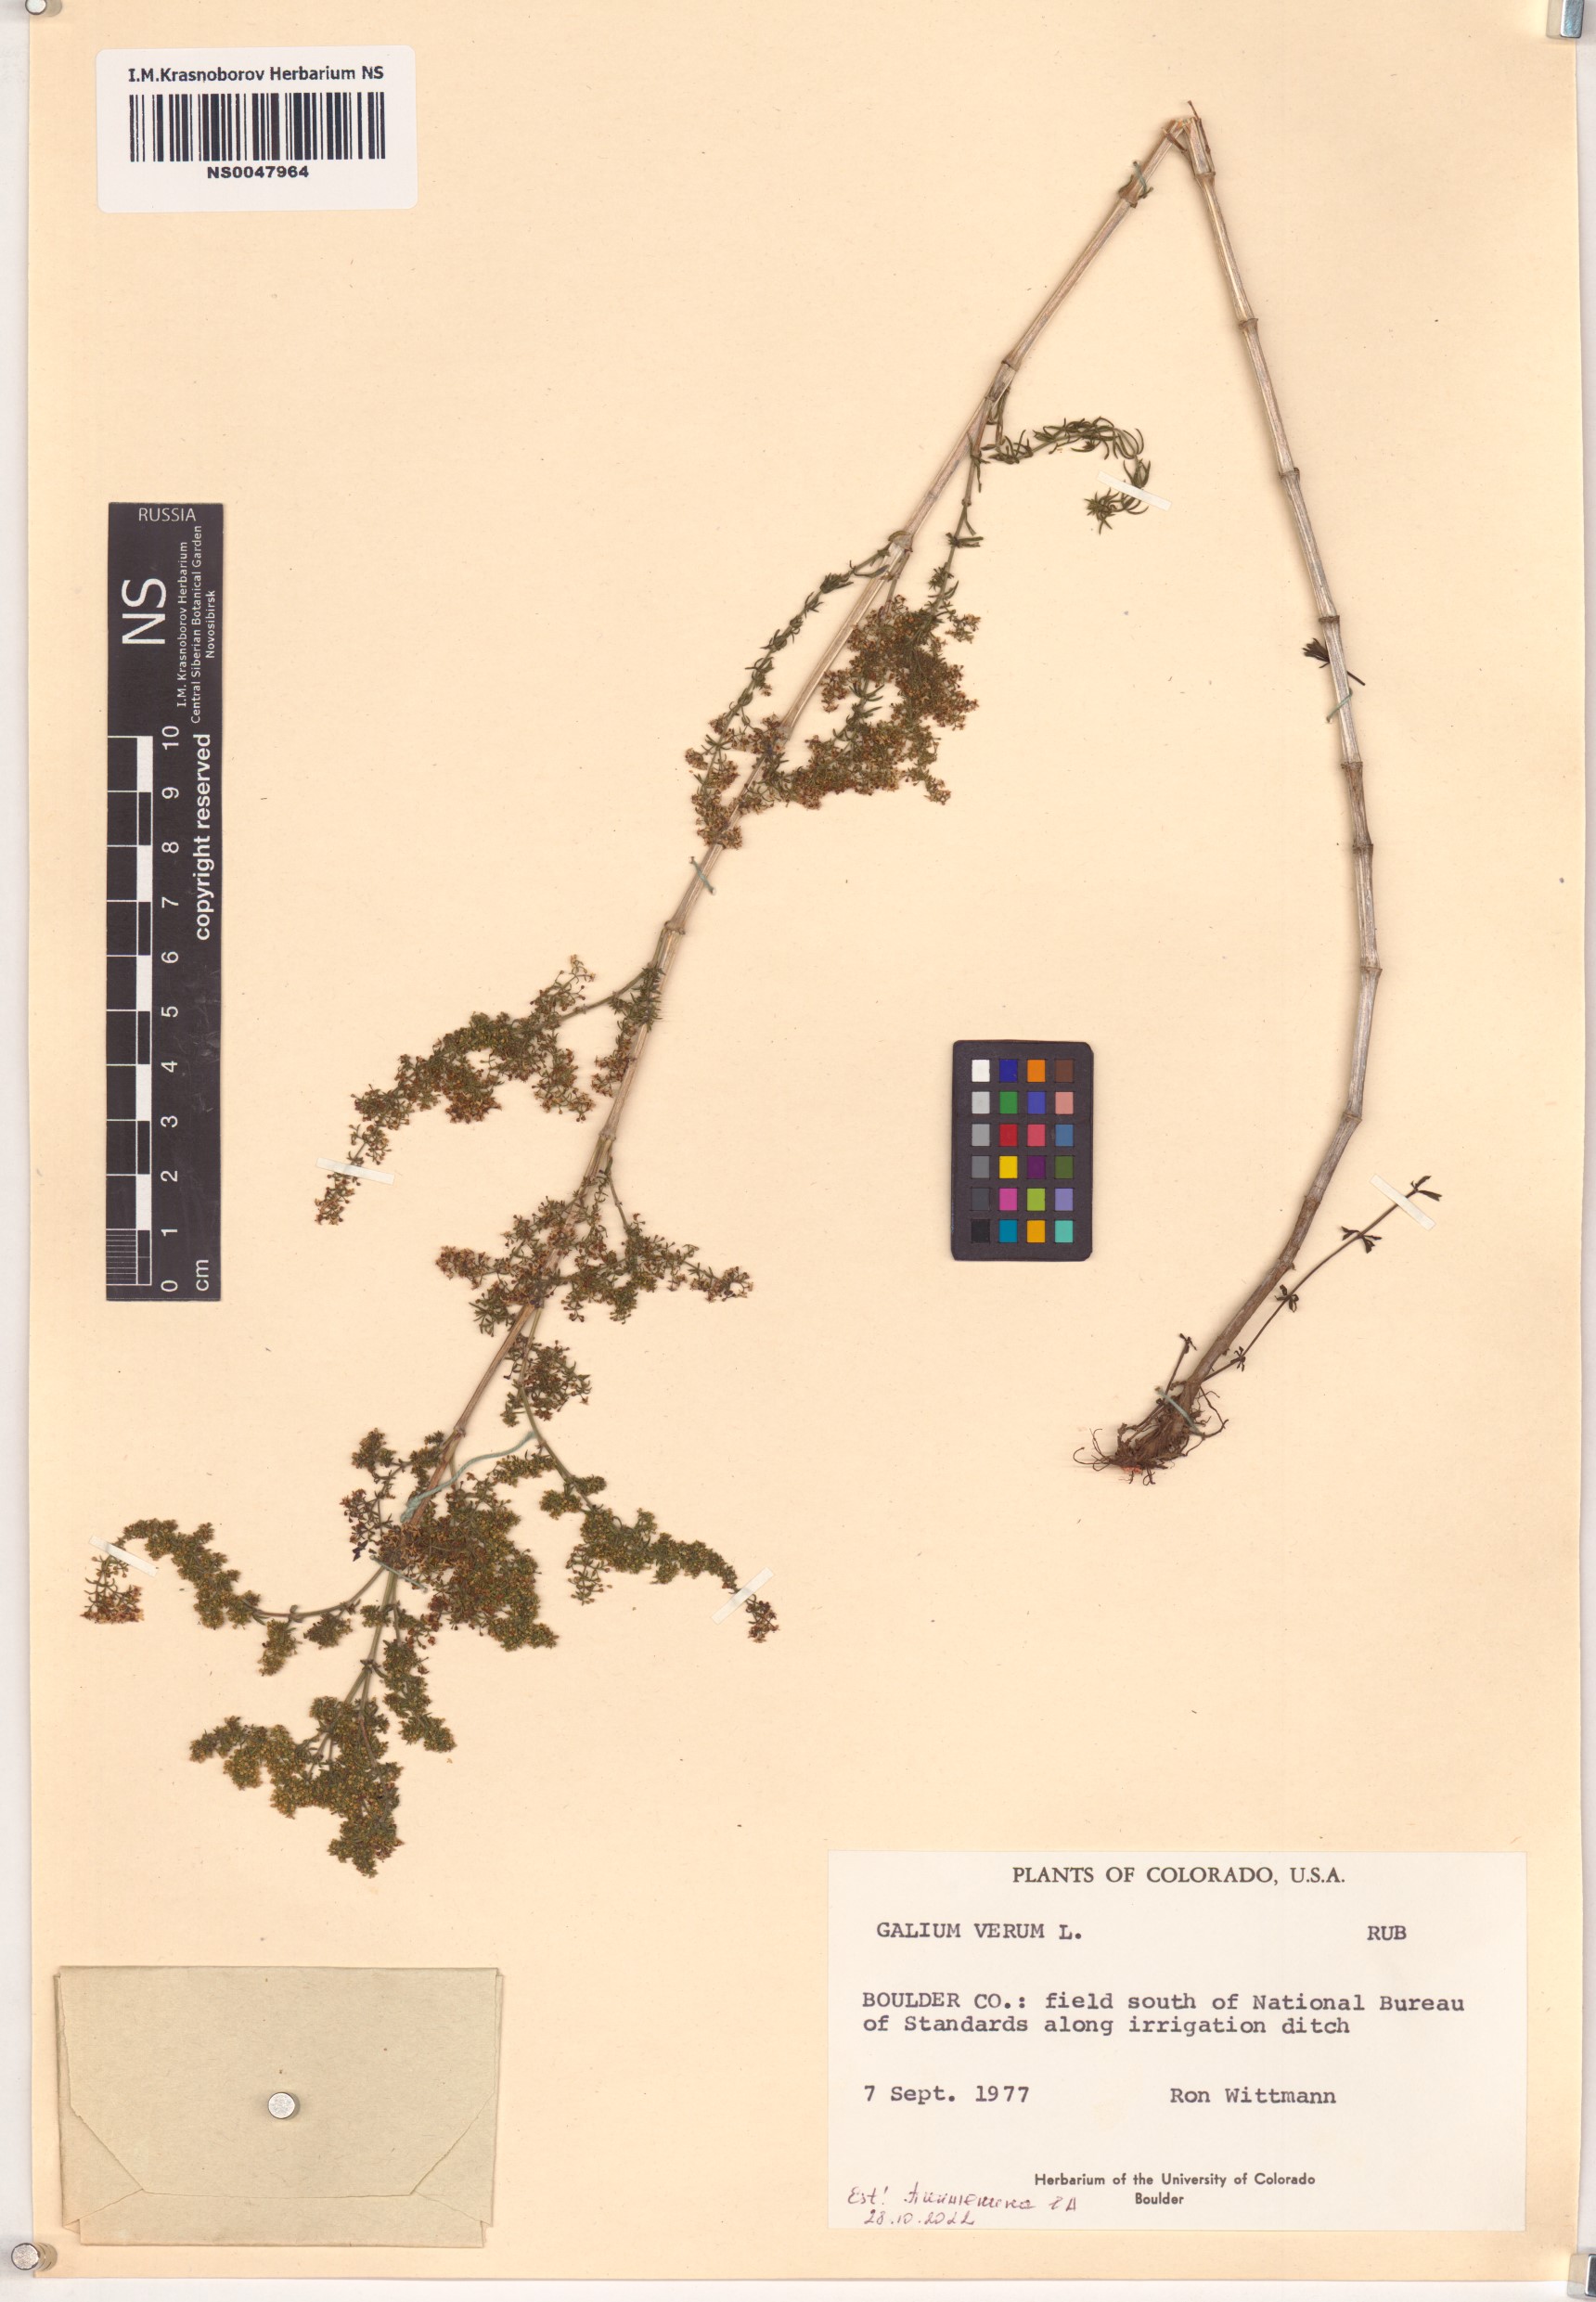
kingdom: Plantae
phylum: Tracheophyta
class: Magnoliopsida
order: Gentianales
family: Rubiaceae
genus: Galium
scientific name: Galium verum
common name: Lady's bedstraw
